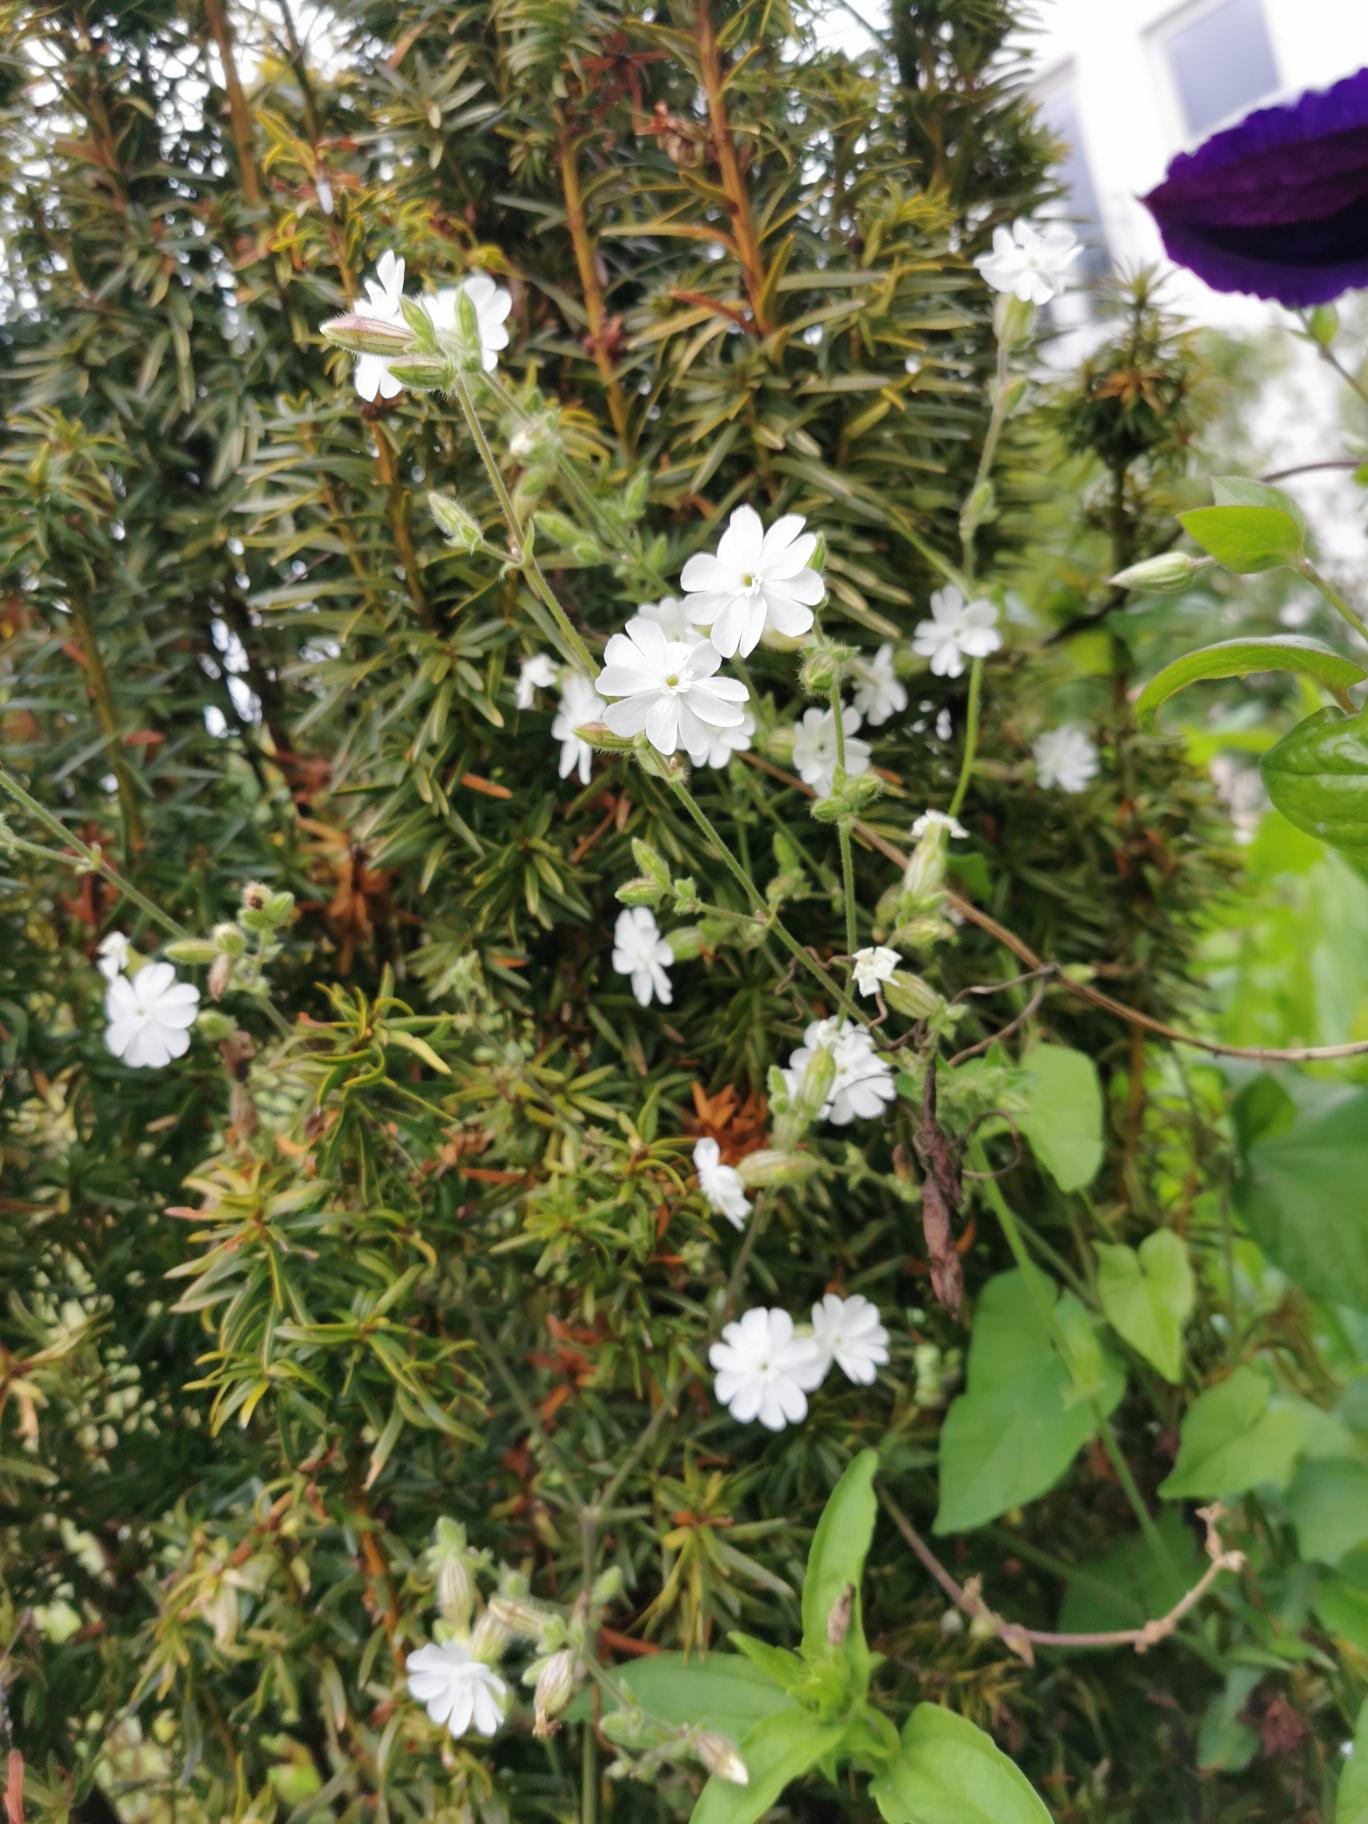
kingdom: Plantae
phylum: Tracheophyta
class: Magnoliopsida
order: Caryophyllales
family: Caryophyllaceae
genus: Silene
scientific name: Silene latifolia
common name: Aftenpragtstjerne
